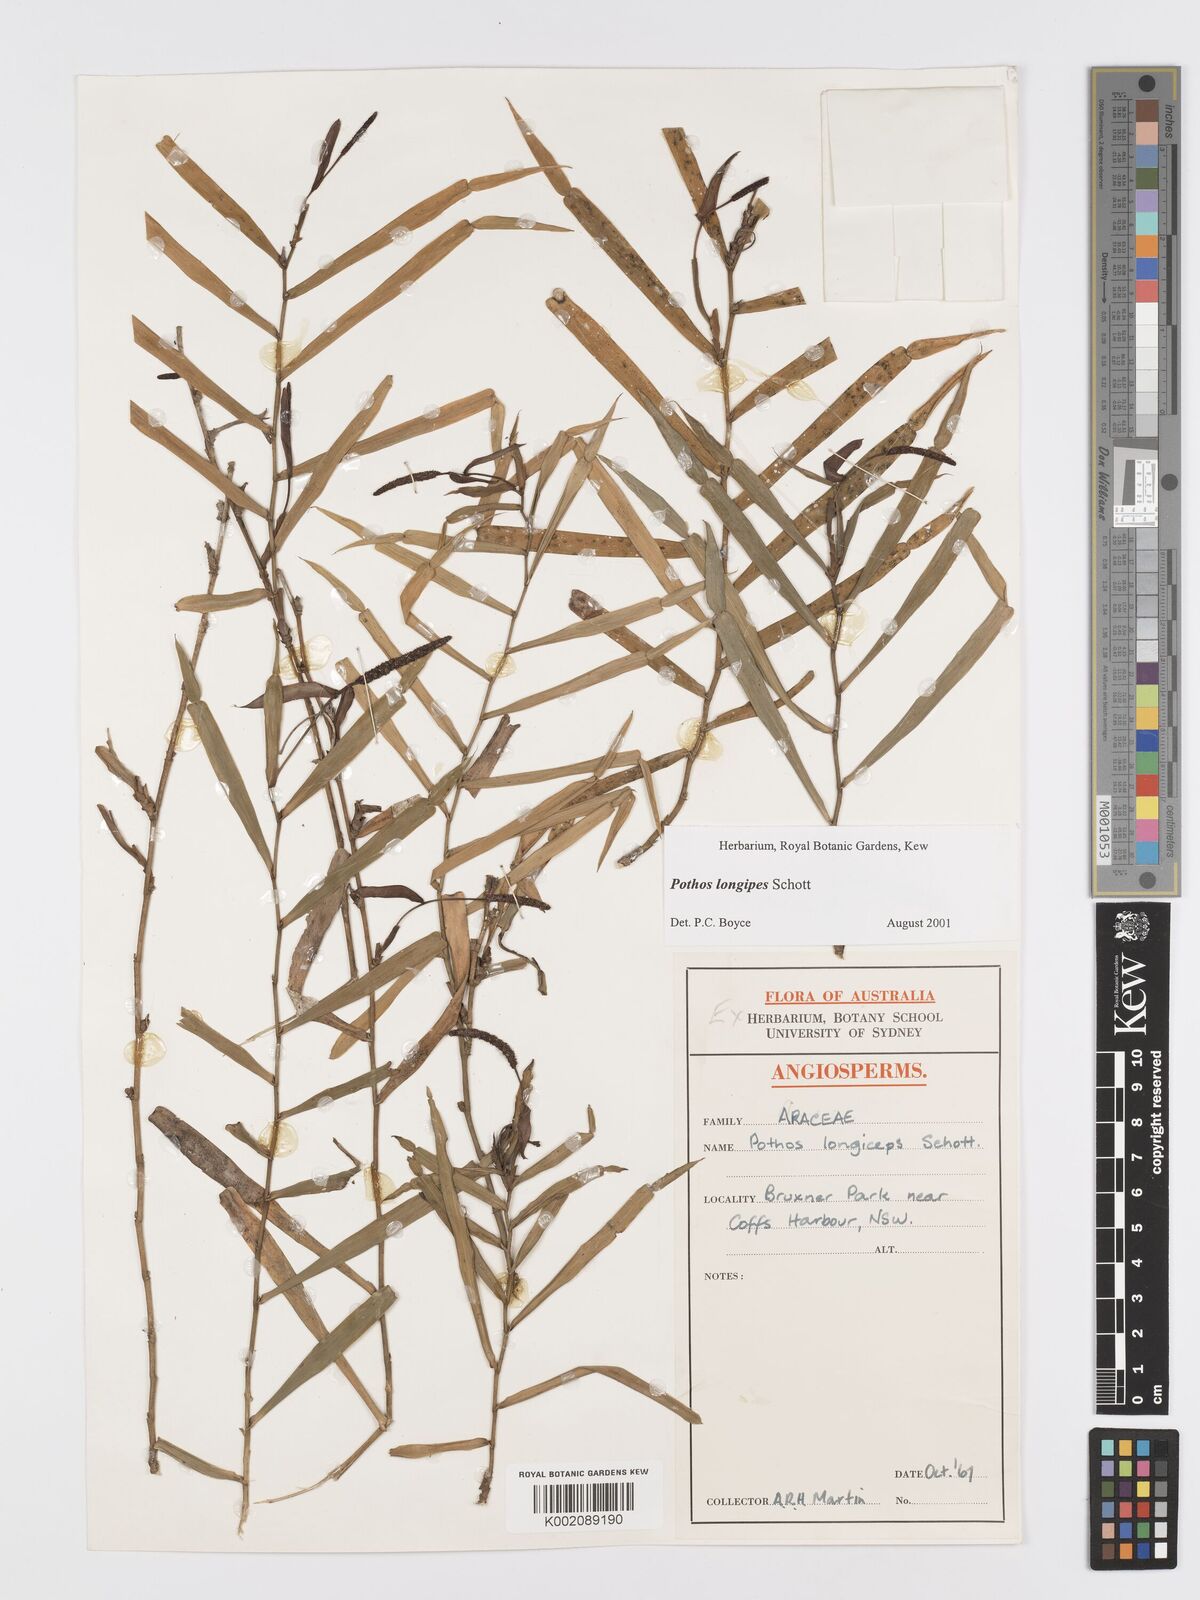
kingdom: Plantae
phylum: Tracheophyta
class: Liliopsida
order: Alismatales
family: Araceae
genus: Pothos
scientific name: Pothos longipes
